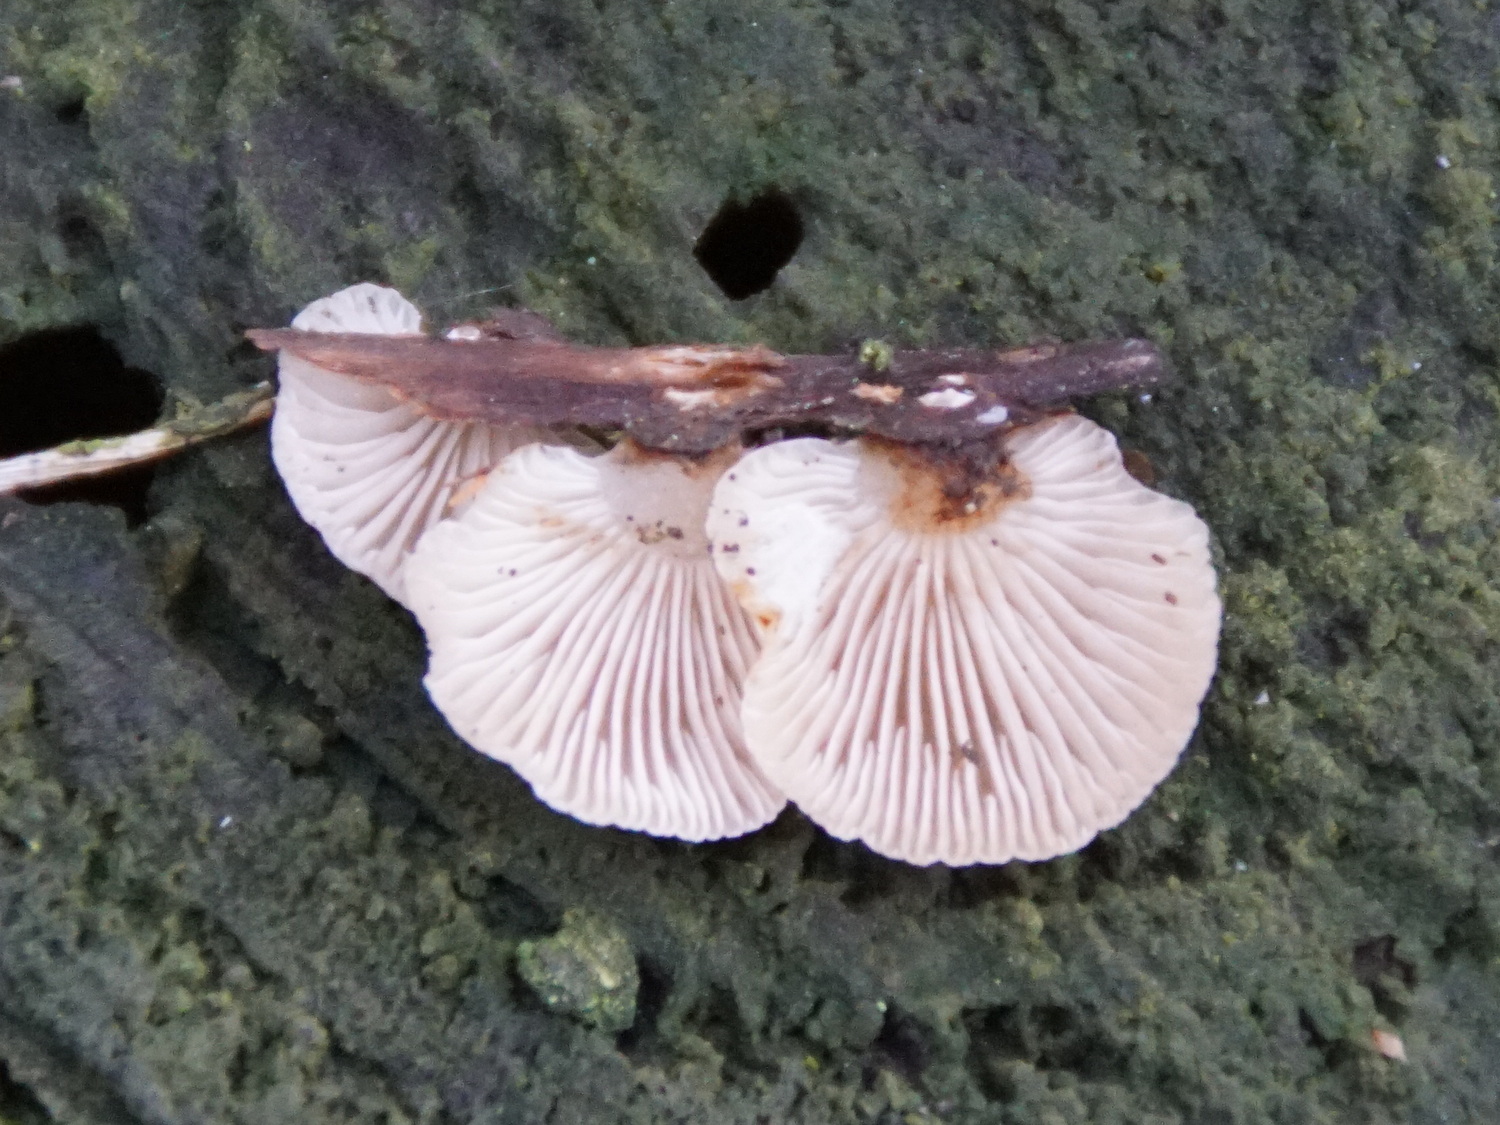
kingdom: Fungi
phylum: Basidiomycota
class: Agaricomycetes
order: Agaricales
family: Mycenaceae
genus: Panellus
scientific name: Panellus mitis
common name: mild epaulethat
